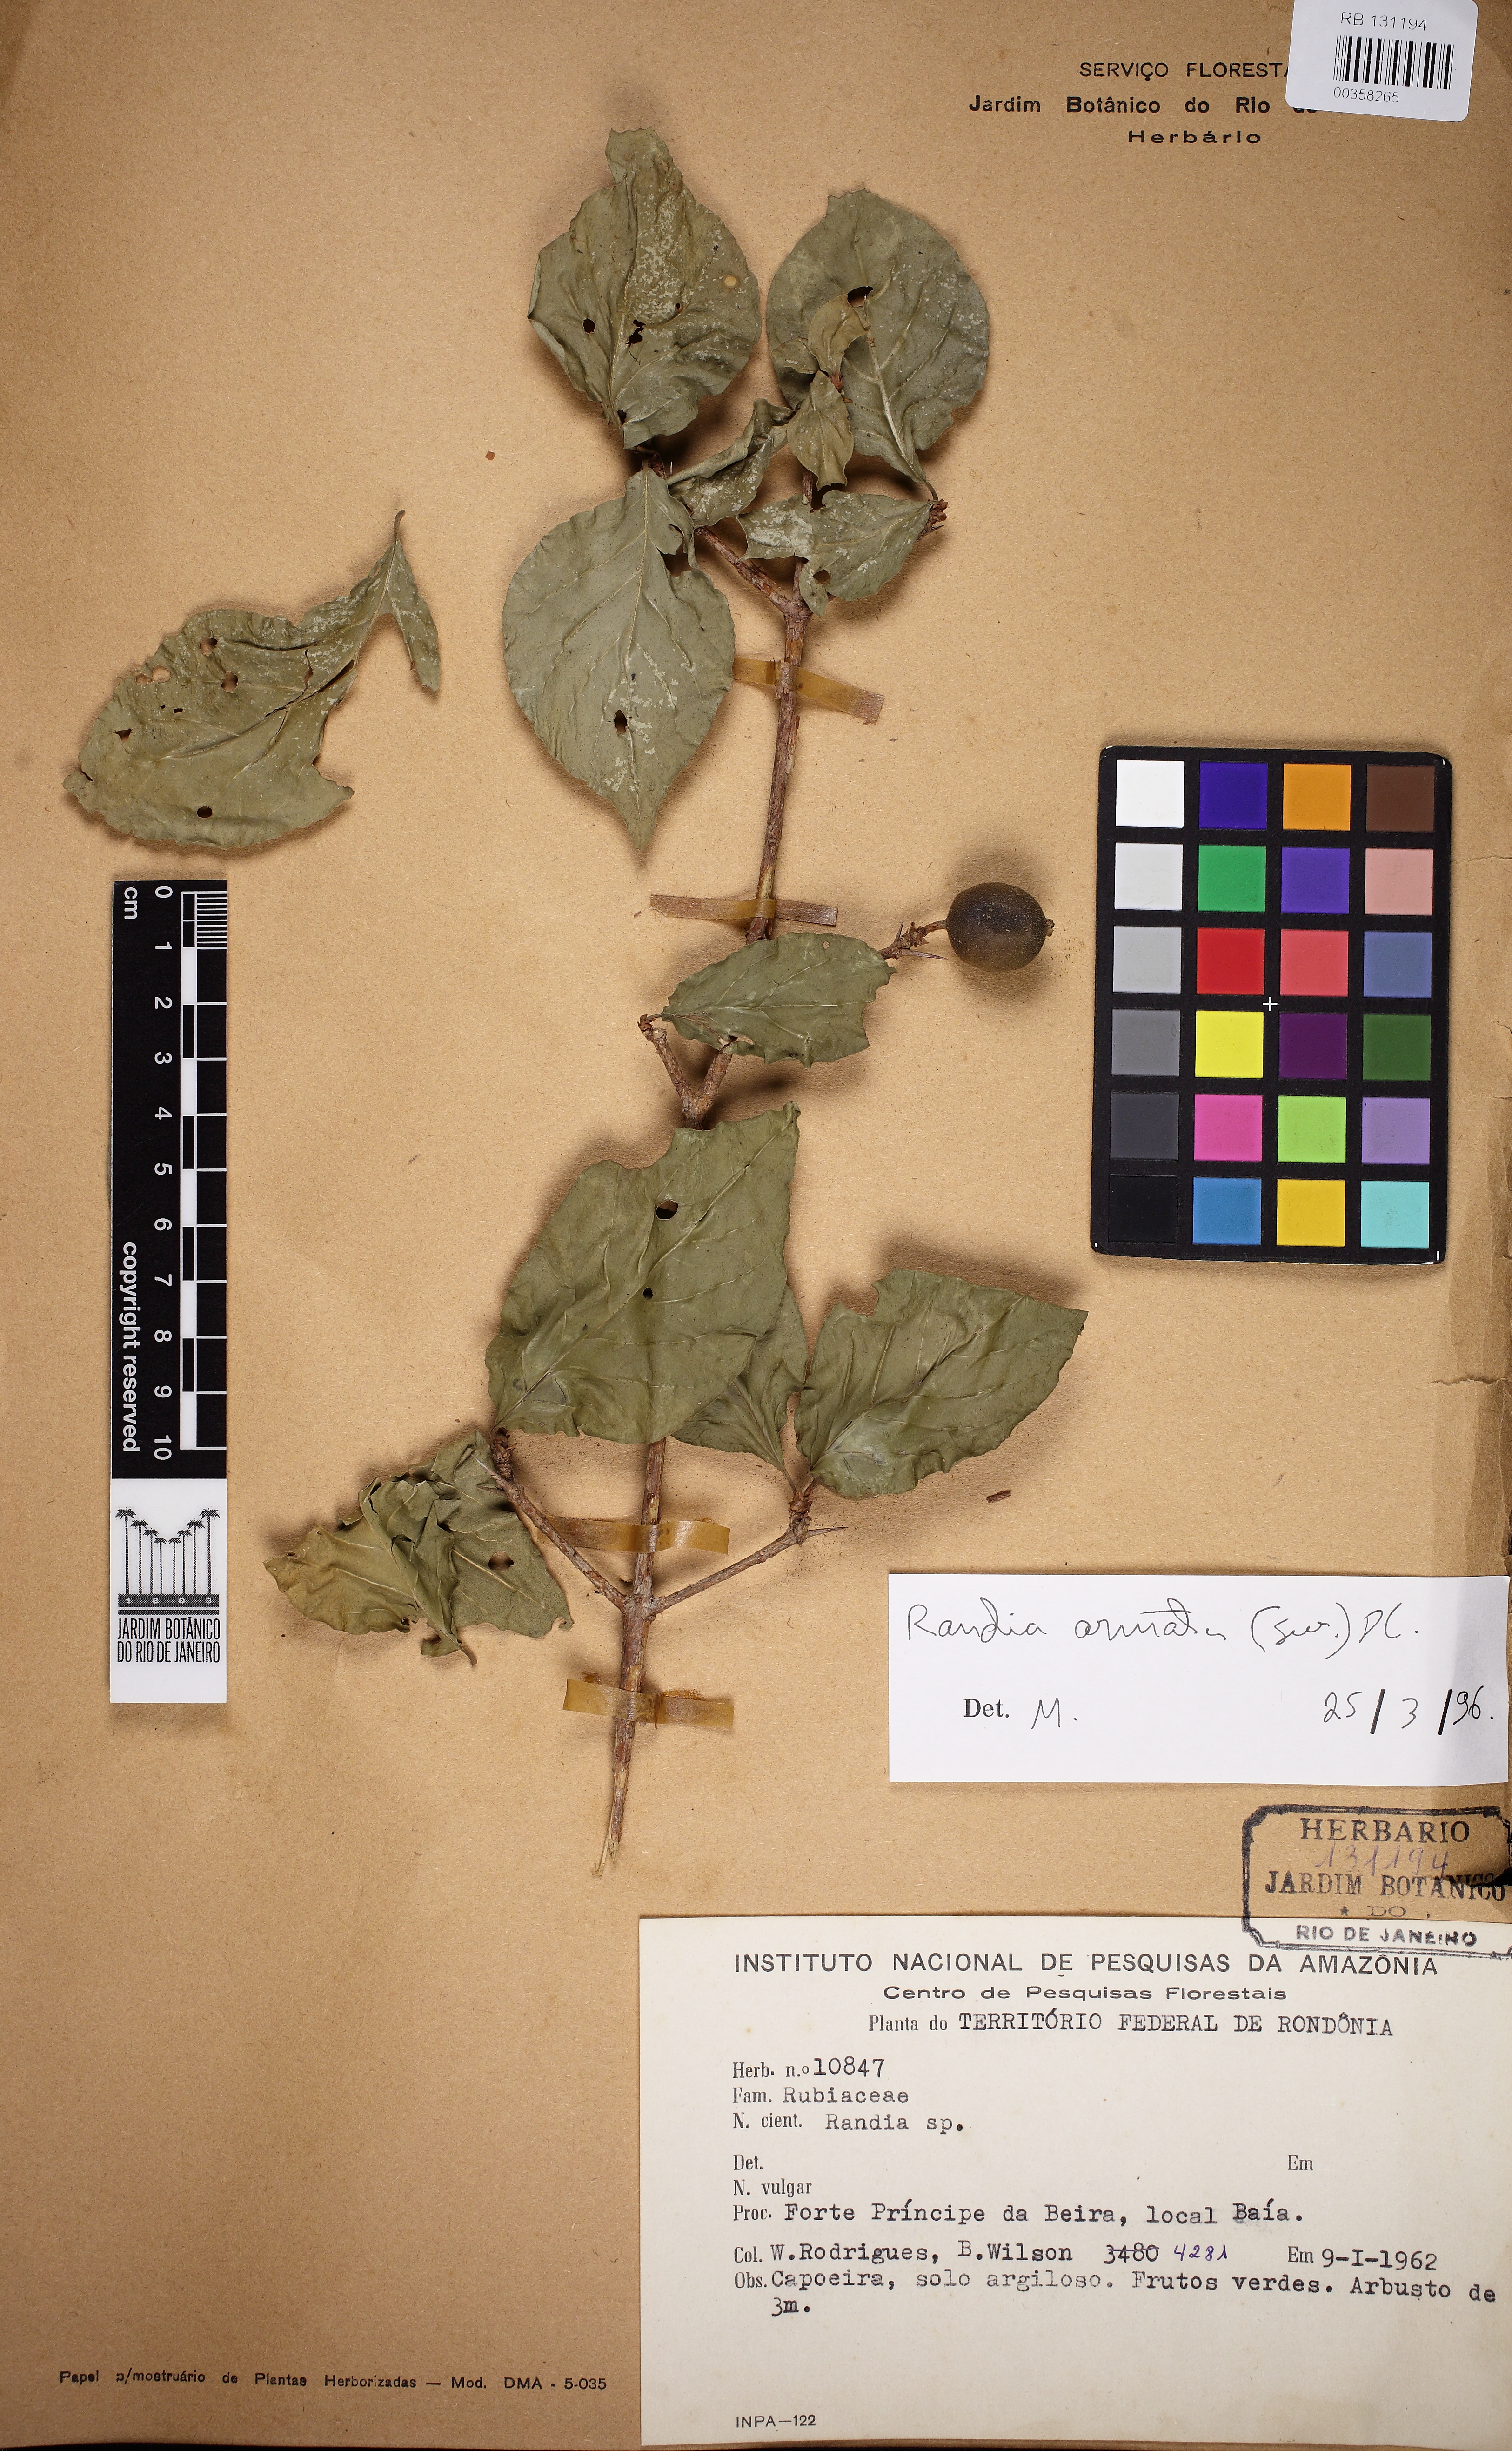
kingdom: Plantae
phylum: Tracheophyta
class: Magnoliopsida
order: Gentianales
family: Rubiaceae
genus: Randia
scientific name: Randia armata
